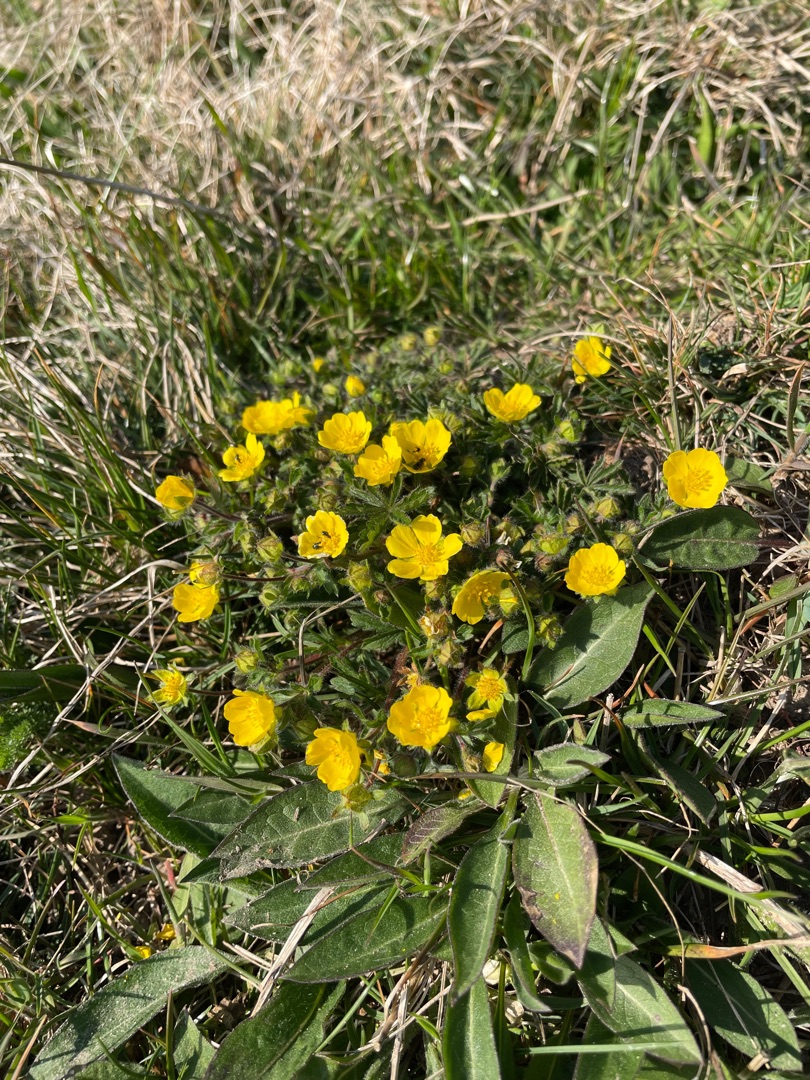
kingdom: Plantae
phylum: Tracheophyta
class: Magnoliopsida
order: Rosales
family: Rosaceae
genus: Potentilla
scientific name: Potentilla heptaphylla
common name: Mat potentil
